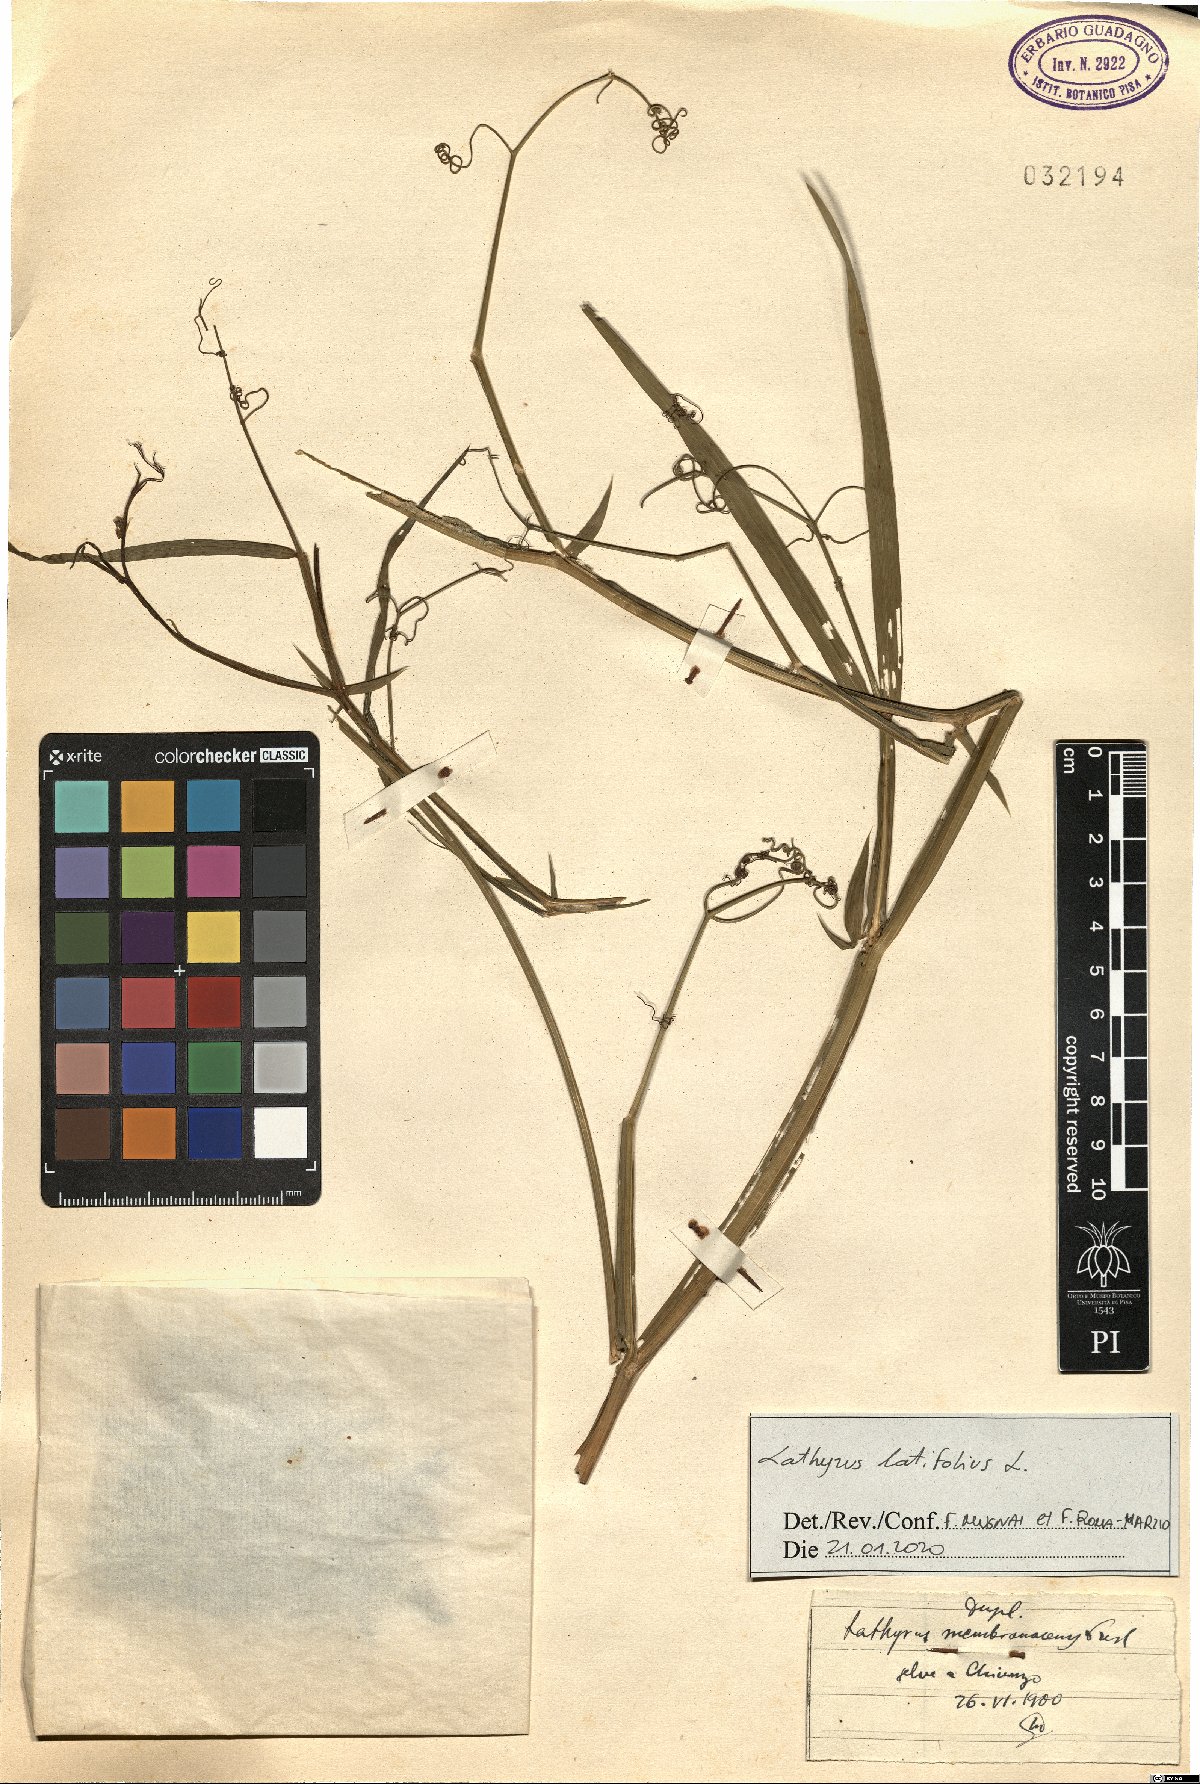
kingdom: Plantae
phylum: Tracheophyta
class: Magnoliopsida
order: Fabales
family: Fabaceae
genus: Lathyrus
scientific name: Lathyrus latifolius
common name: Perennial pea
